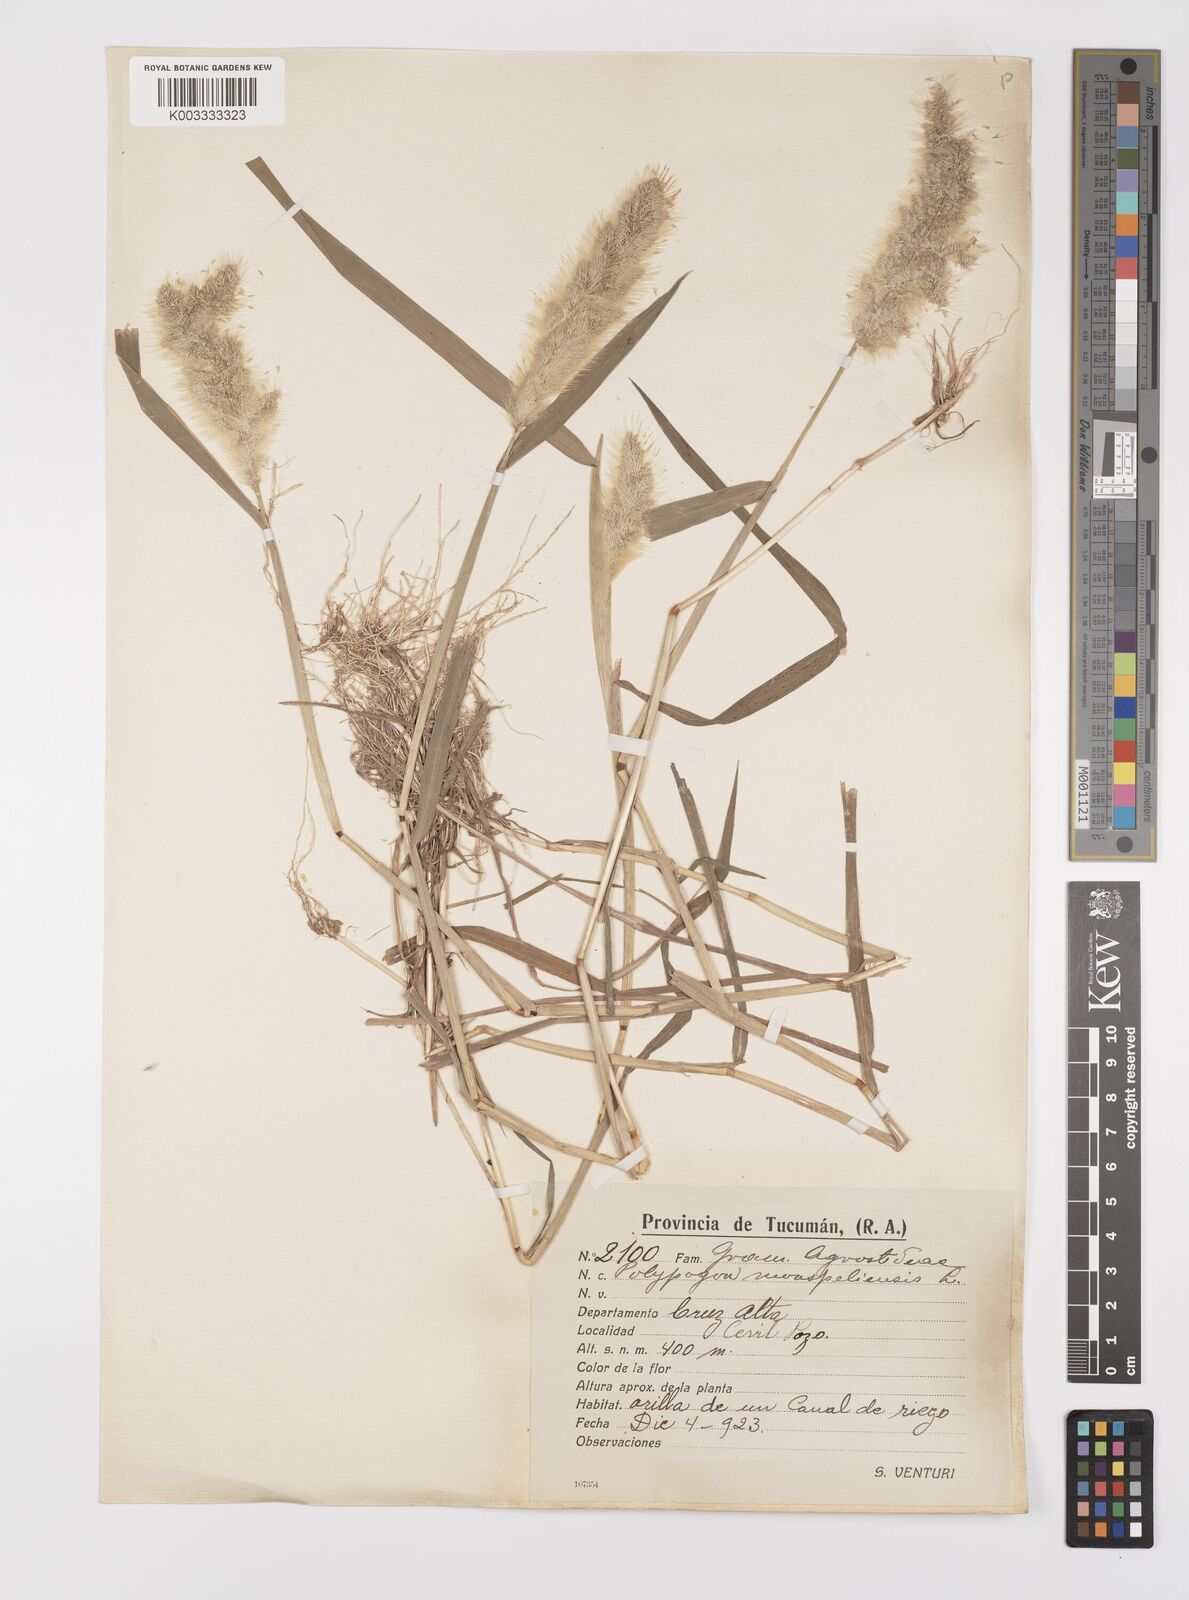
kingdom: Plantae
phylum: Tracheophyta
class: Liliopsida
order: Poales
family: Poaceae
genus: Polypogon
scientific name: Polypogon monspeliensis
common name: Annual rabbitsfoot grass
